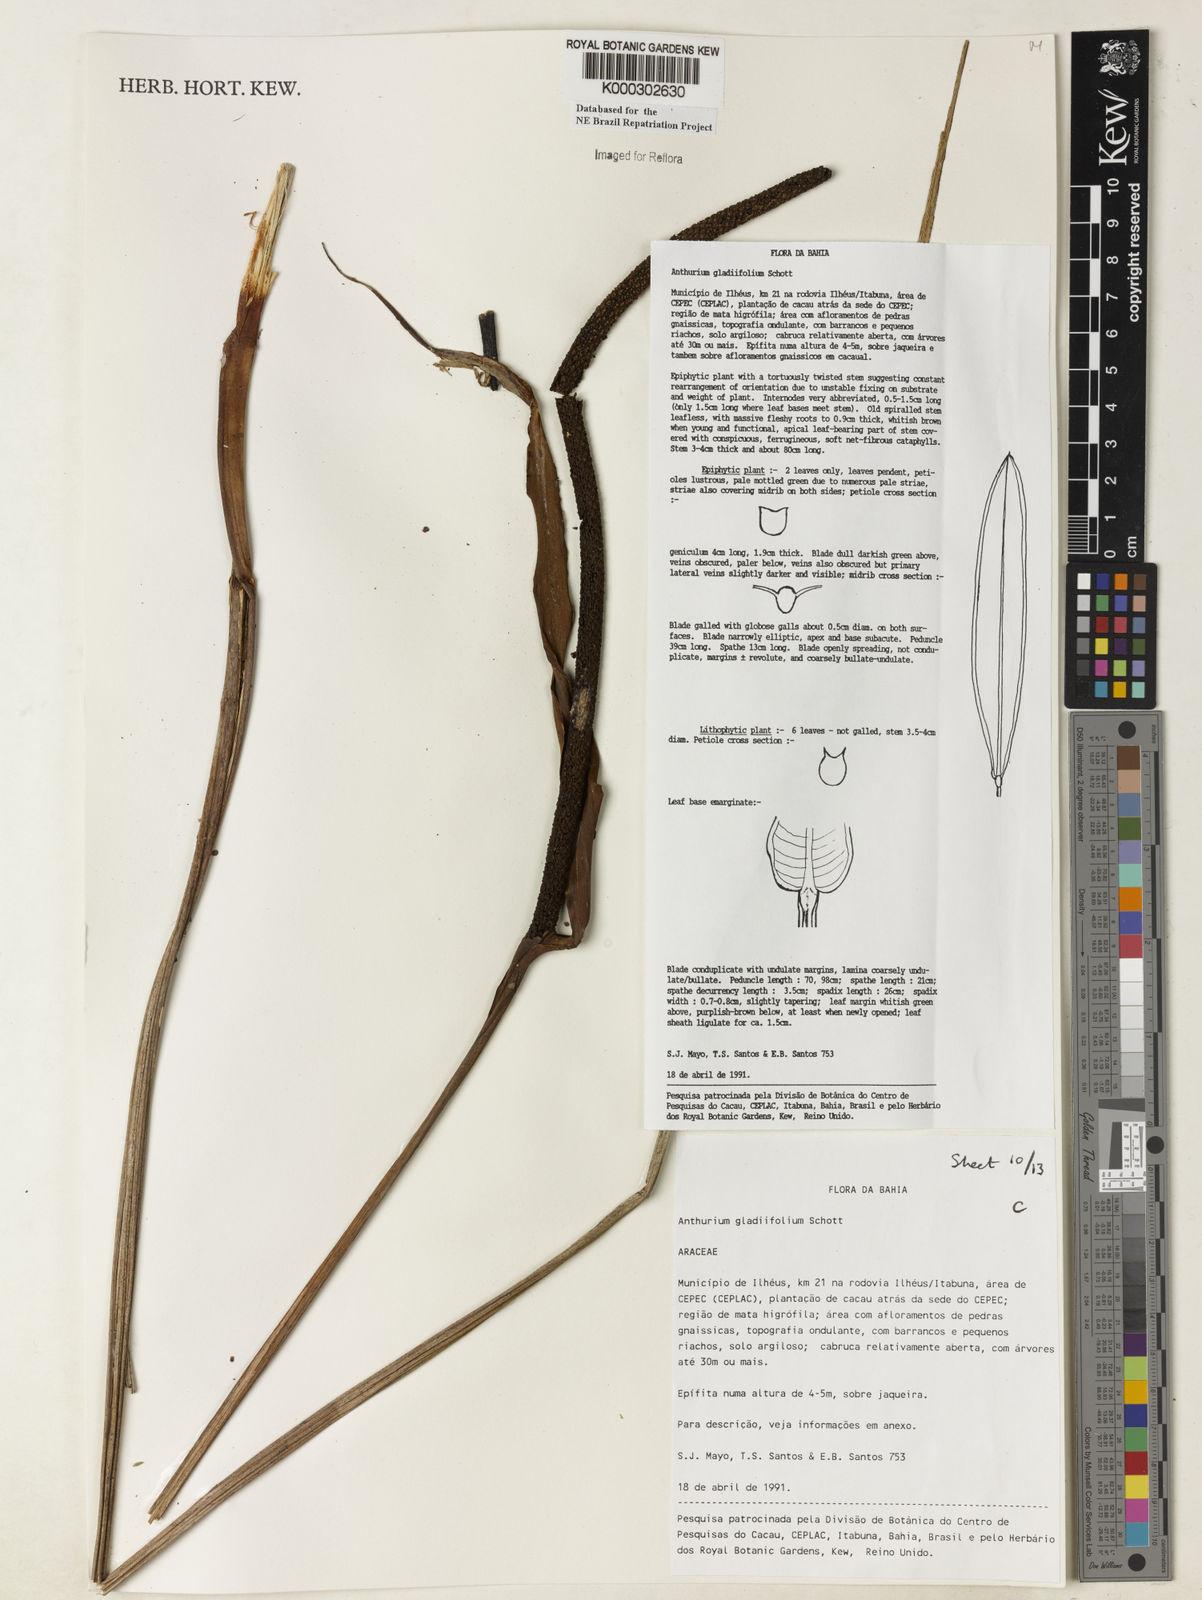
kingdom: Plantae
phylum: Tracheophyta
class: Liliopsida
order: Alismatales
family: Araceae
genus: Anthurium
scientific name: Anthurium gladiifolium
